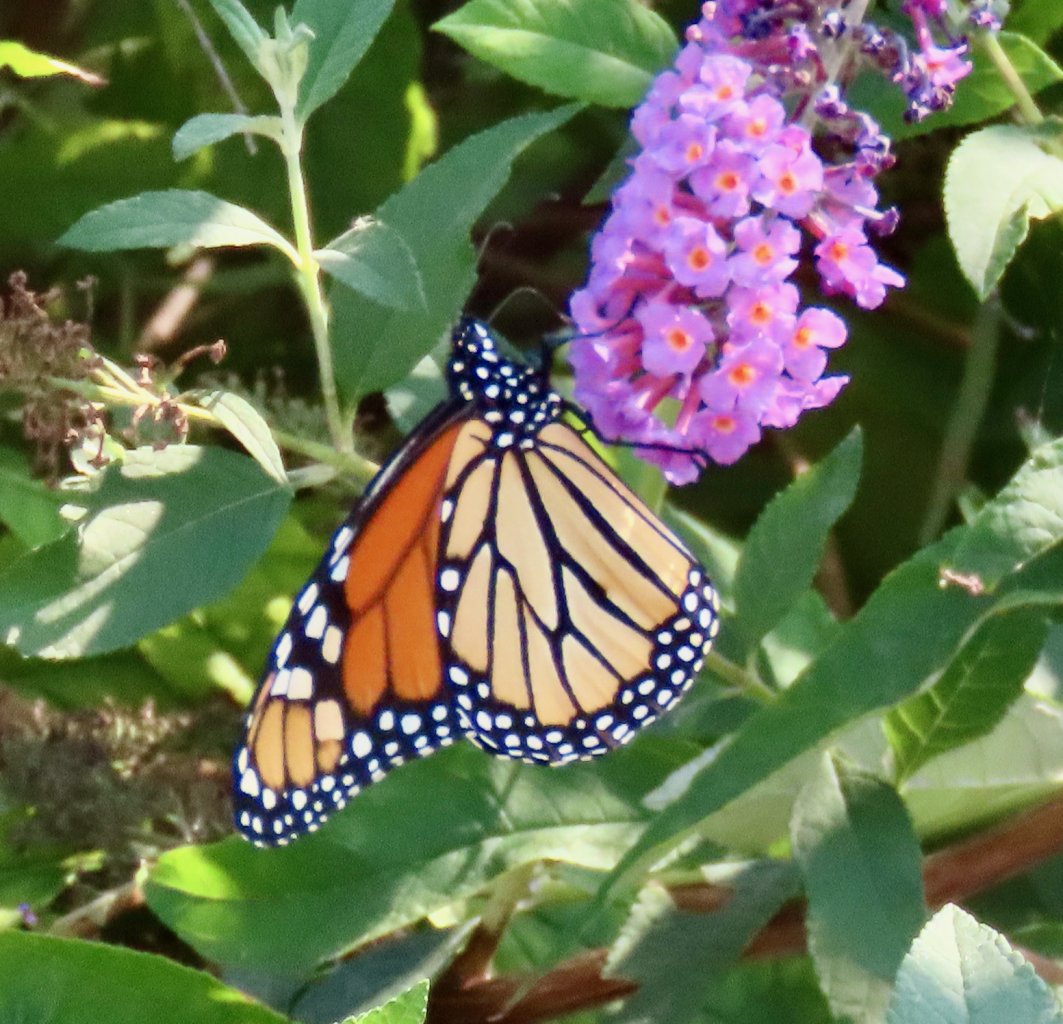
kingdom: Animalia
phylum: Arthropoda
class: Insecta
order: Lepidoptera
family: Nymphalidae
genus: Danaus
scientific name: Danaus plexippus
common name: Monarch
